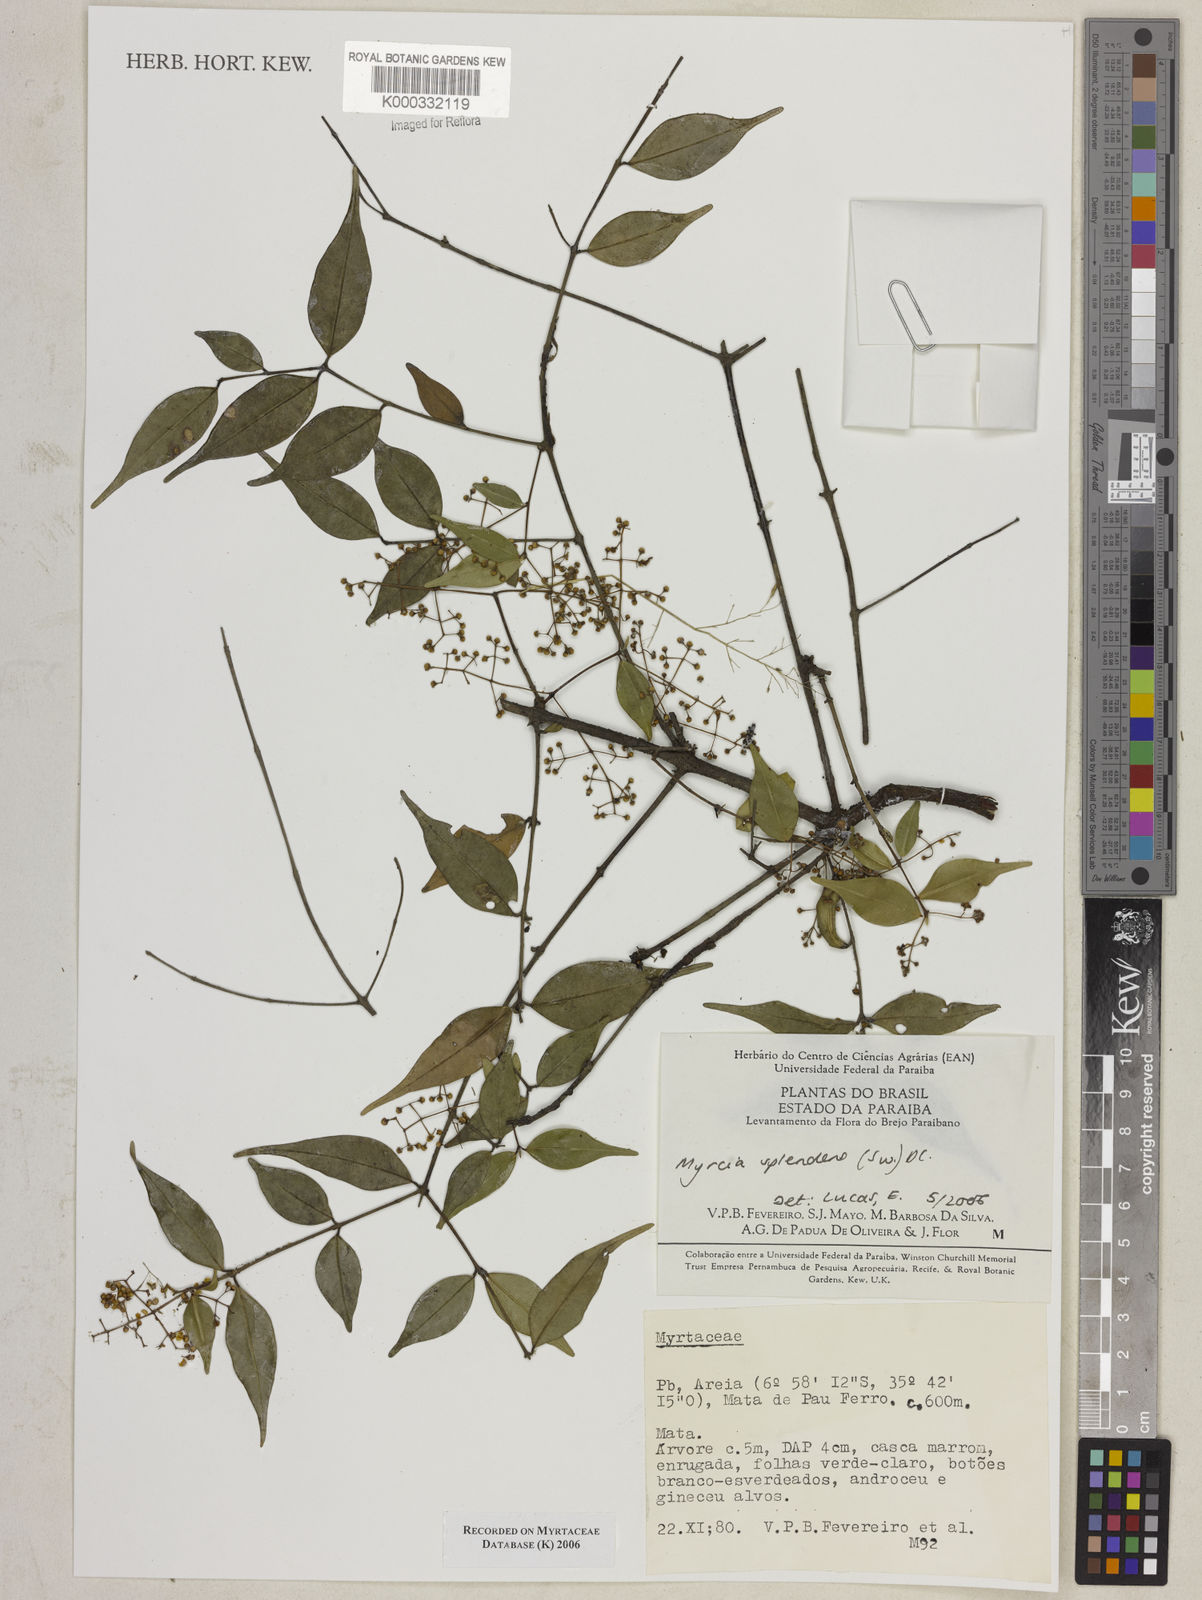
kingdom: Plantae
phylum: Tracheophyta
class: Magnoliopsida
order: Myrtales
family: Myrtaceae
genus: Myrcia
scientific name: Myrcia splendens
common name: Surinam cherry
